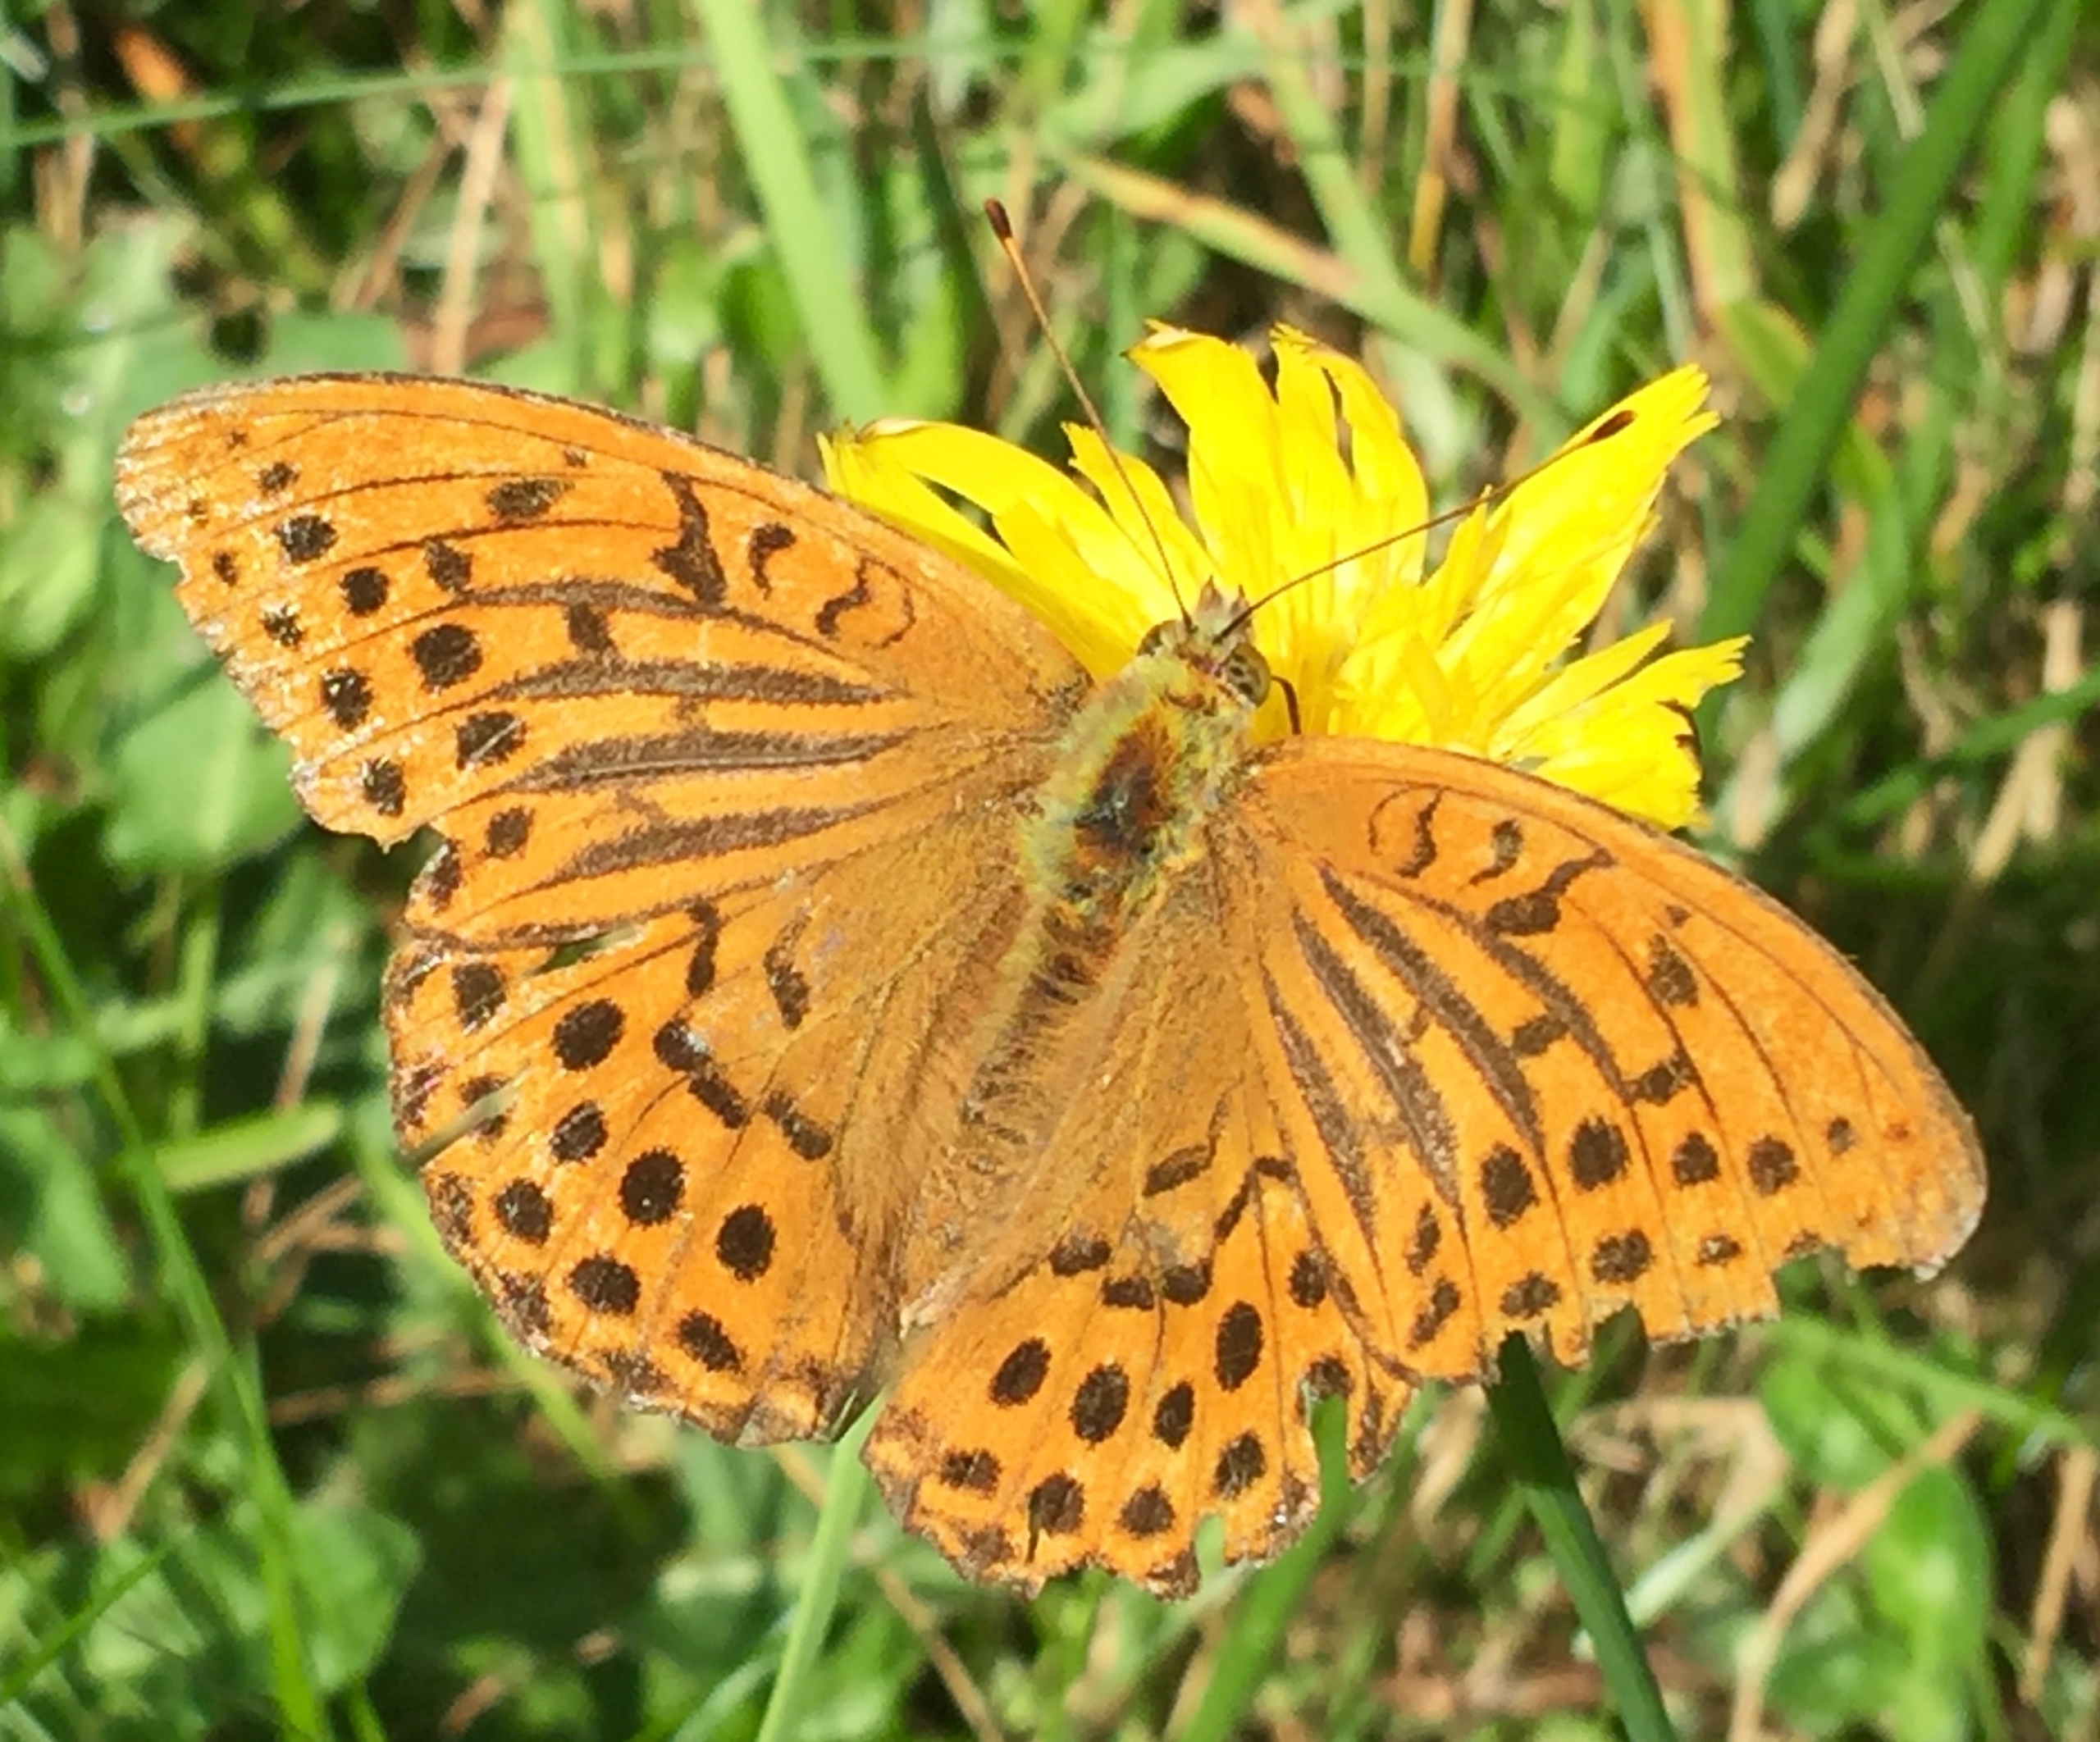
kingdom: Animalia
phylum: Arthropoda
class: Insecta
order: Lepidoptera
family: Nymphalidae
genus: Argynnis
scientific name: Argynnis paphia
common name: Kejserkåbe
